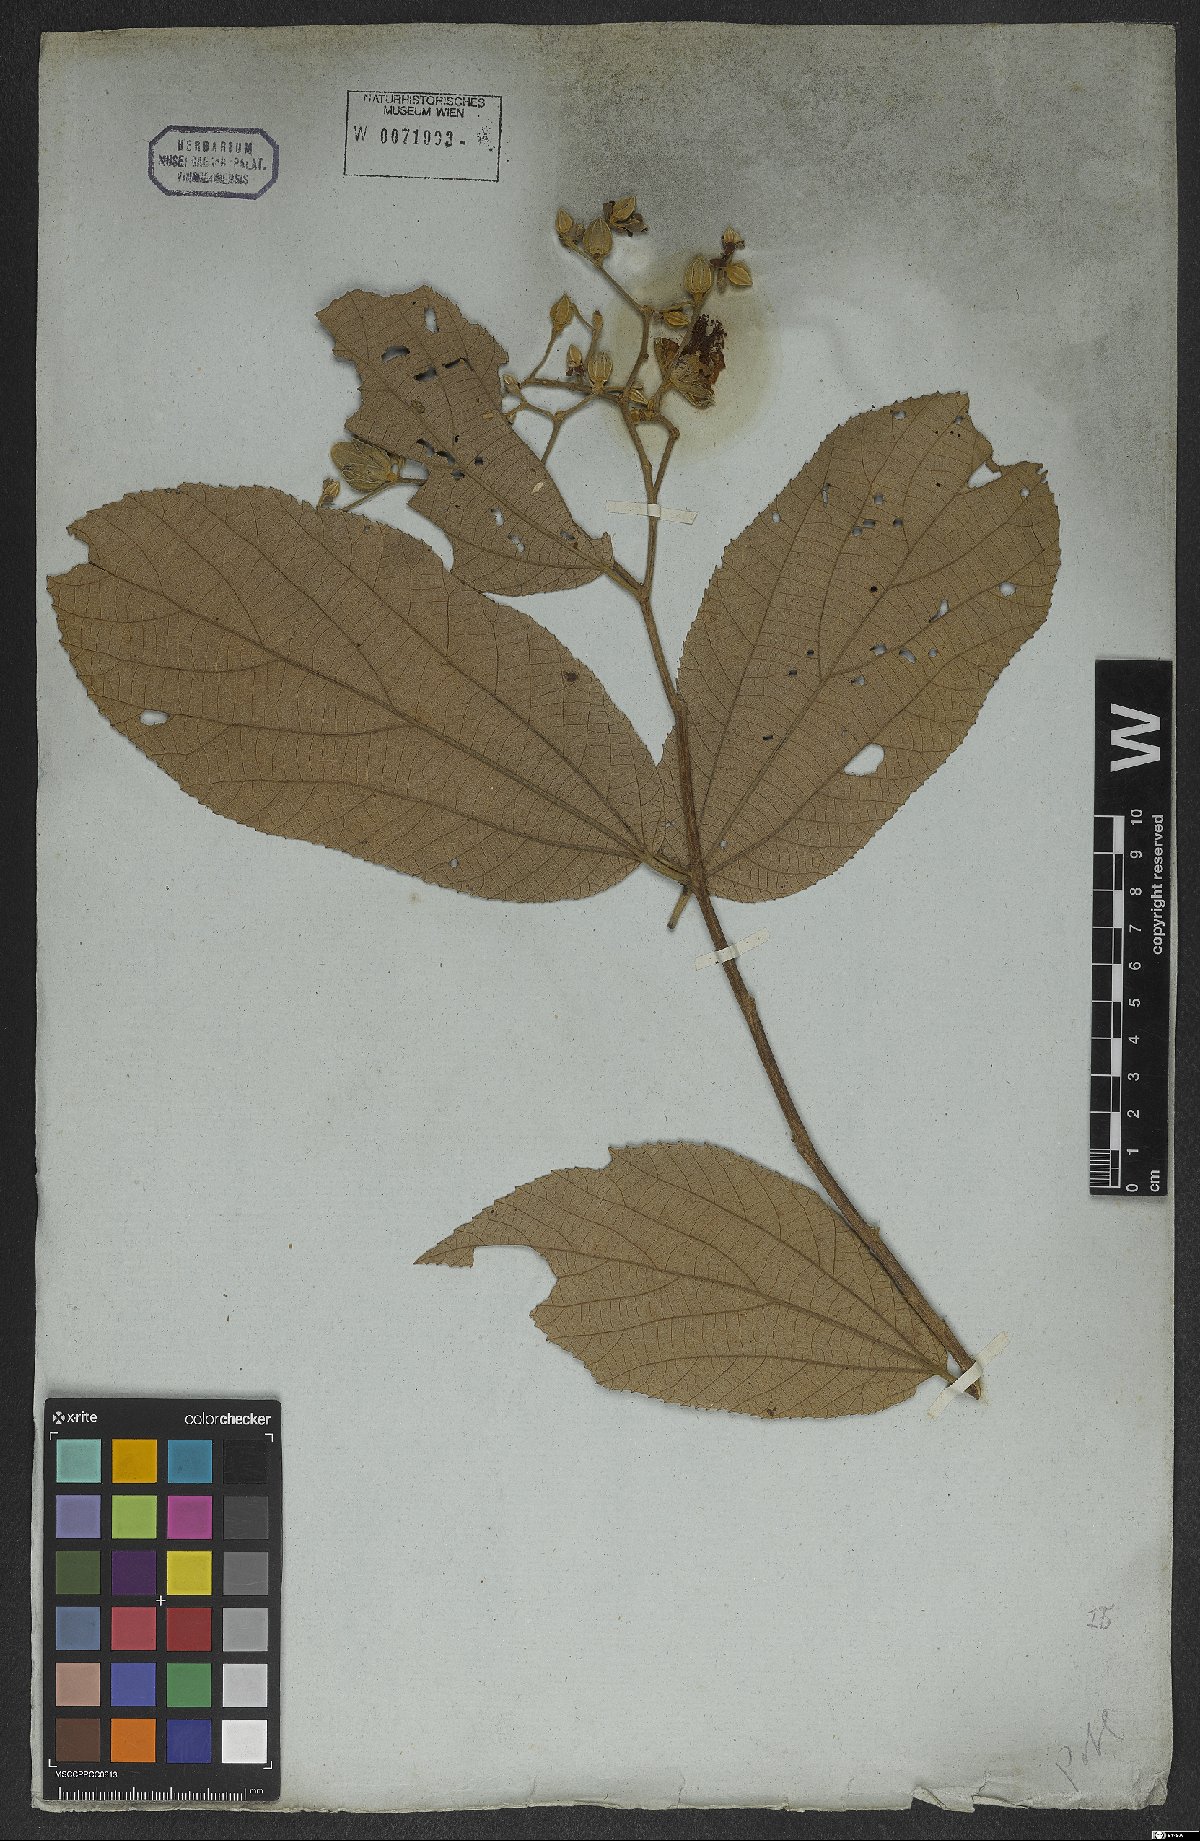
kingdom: Plantae
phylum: Tracheophyta
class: Magnoliopsida
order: Malvales
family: Malvaceae
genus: Luehea
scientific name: Luehea divaricata
